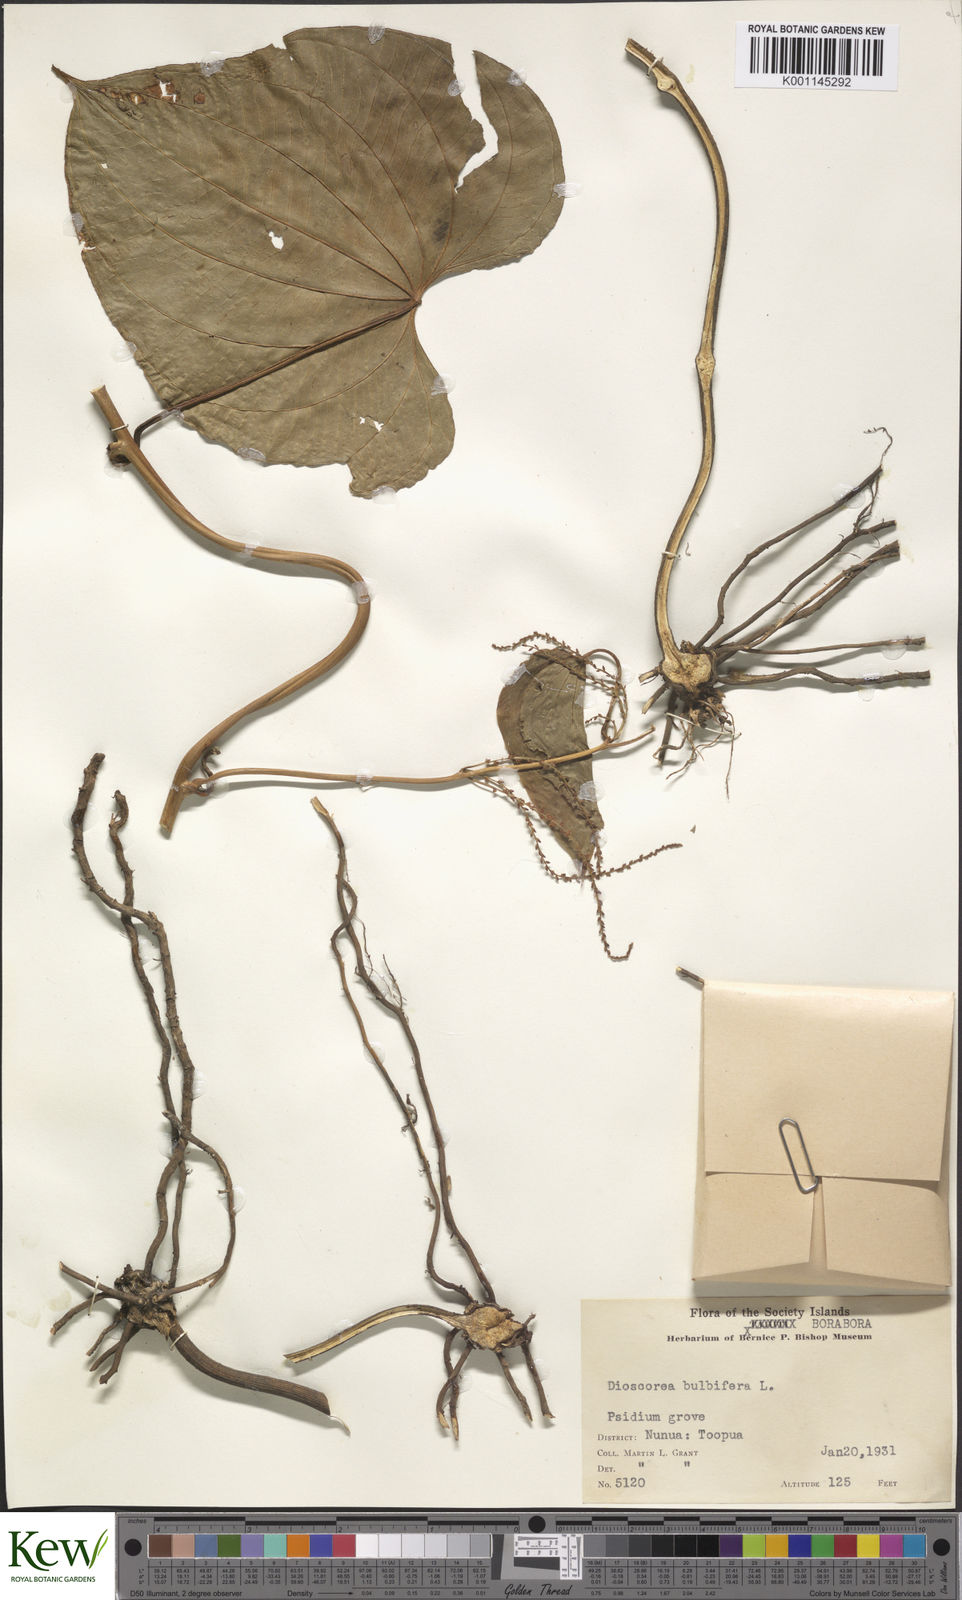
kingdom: Plantae
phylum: Tracheophyta
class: Liliopsida
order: Dioscoreales
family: Dioscoreaceae
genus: Dioscorea
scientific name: Dioscorea bulbifera
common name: Air yam
